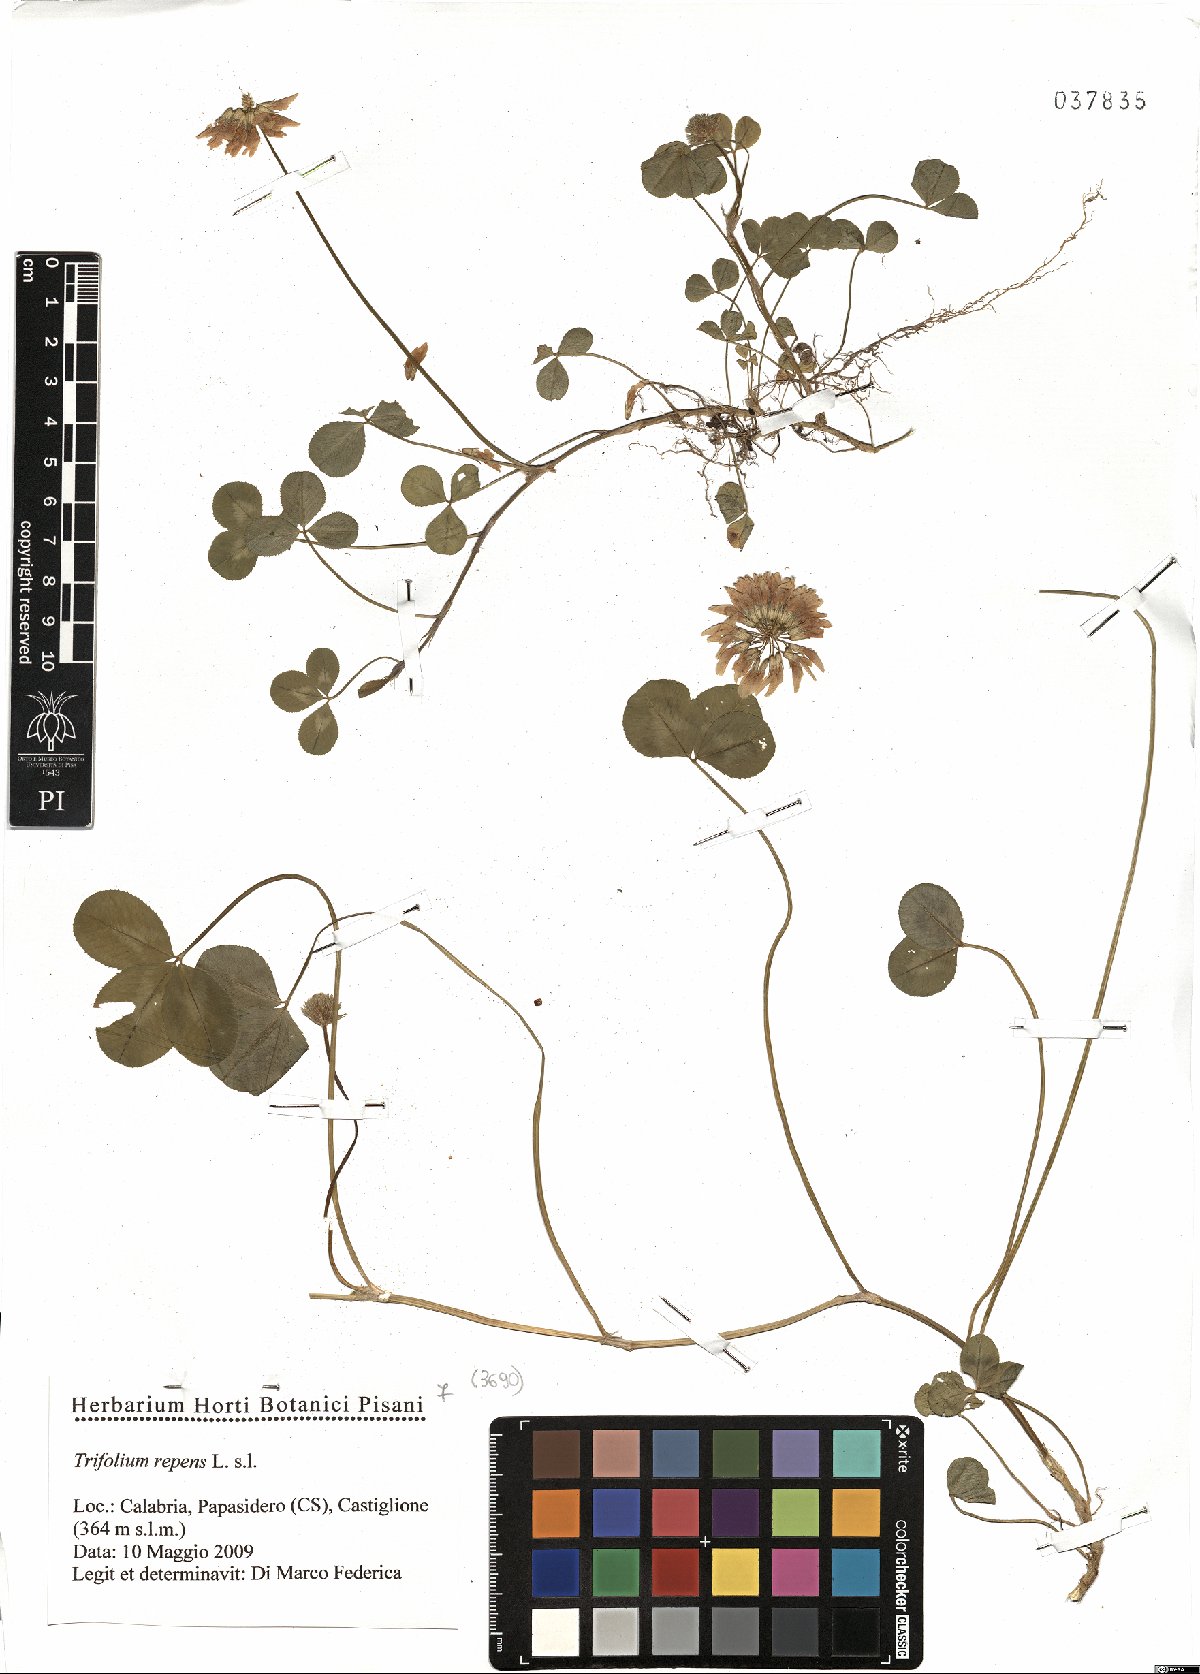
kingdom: Plantae
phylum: Tracheophyta
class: Magnoliopsida
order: Fabales
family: Fabaceae
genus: Trifolium
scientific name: Trifolium repens
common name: White clover
